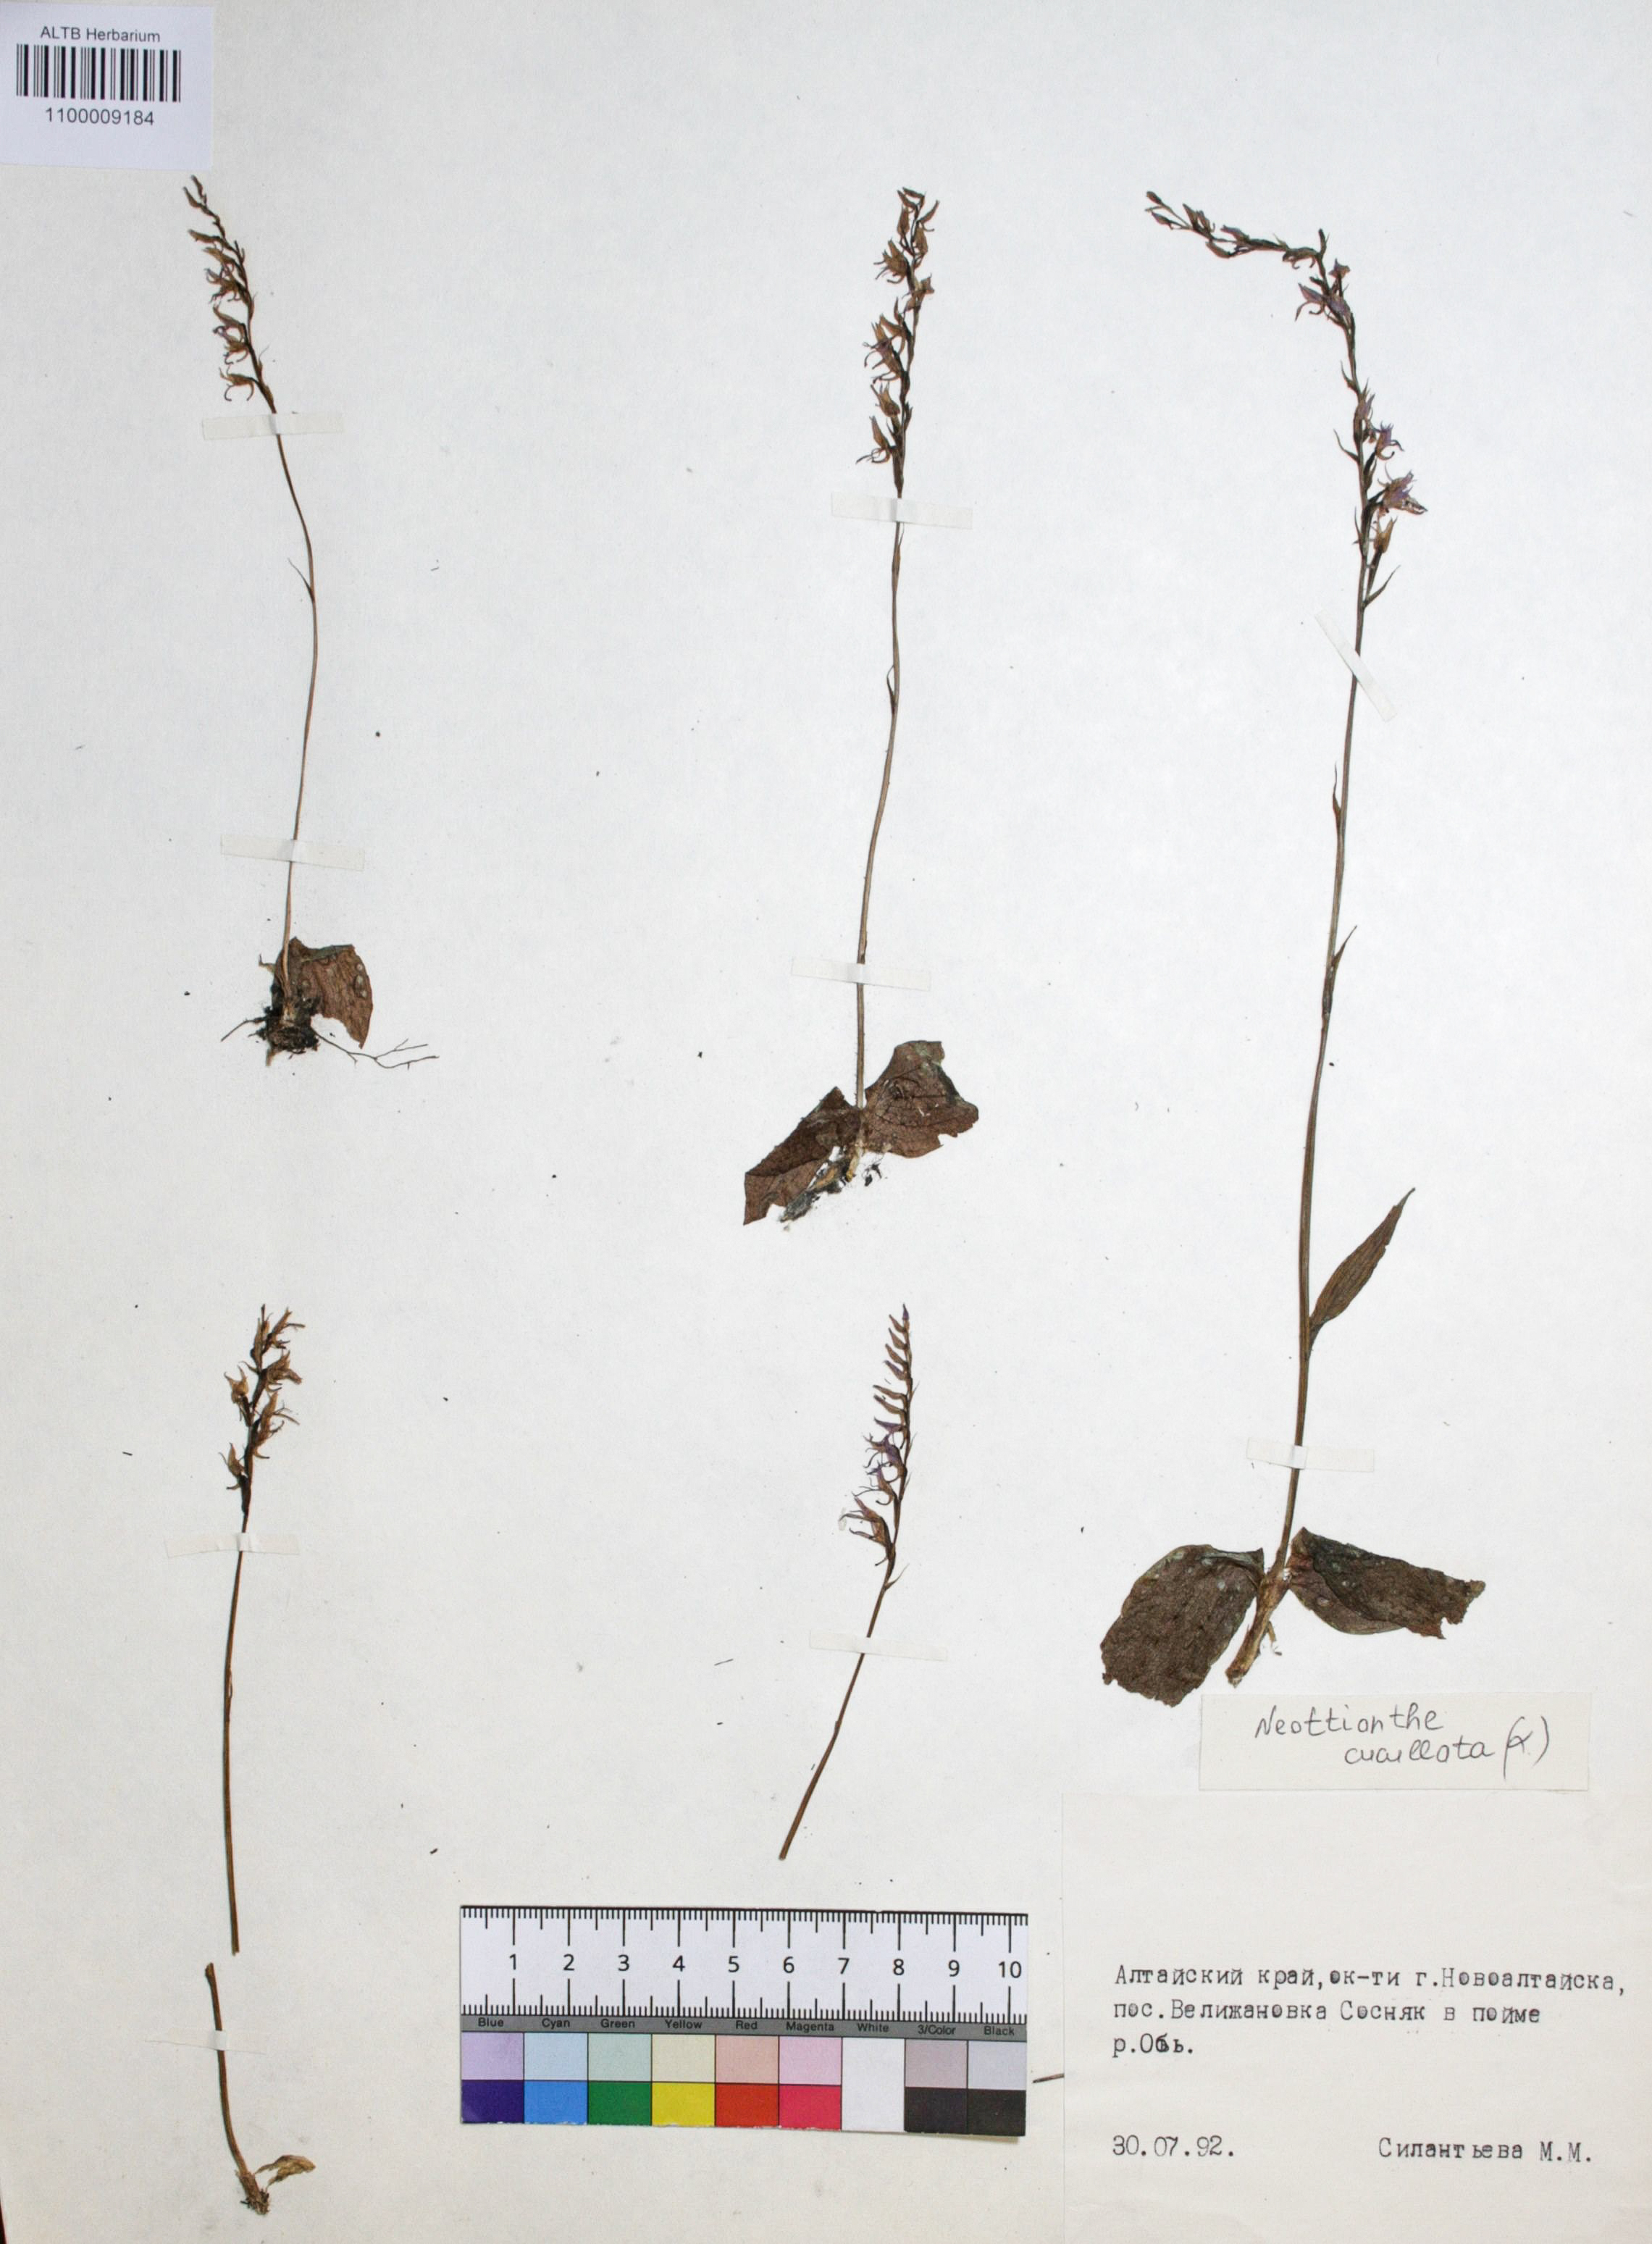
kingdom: Plantae
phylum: Tracheophyta
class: Liliopsida
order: Asparagales
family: Orchidaceae
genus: Hemipilia
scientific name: Hemipilia cucullata
